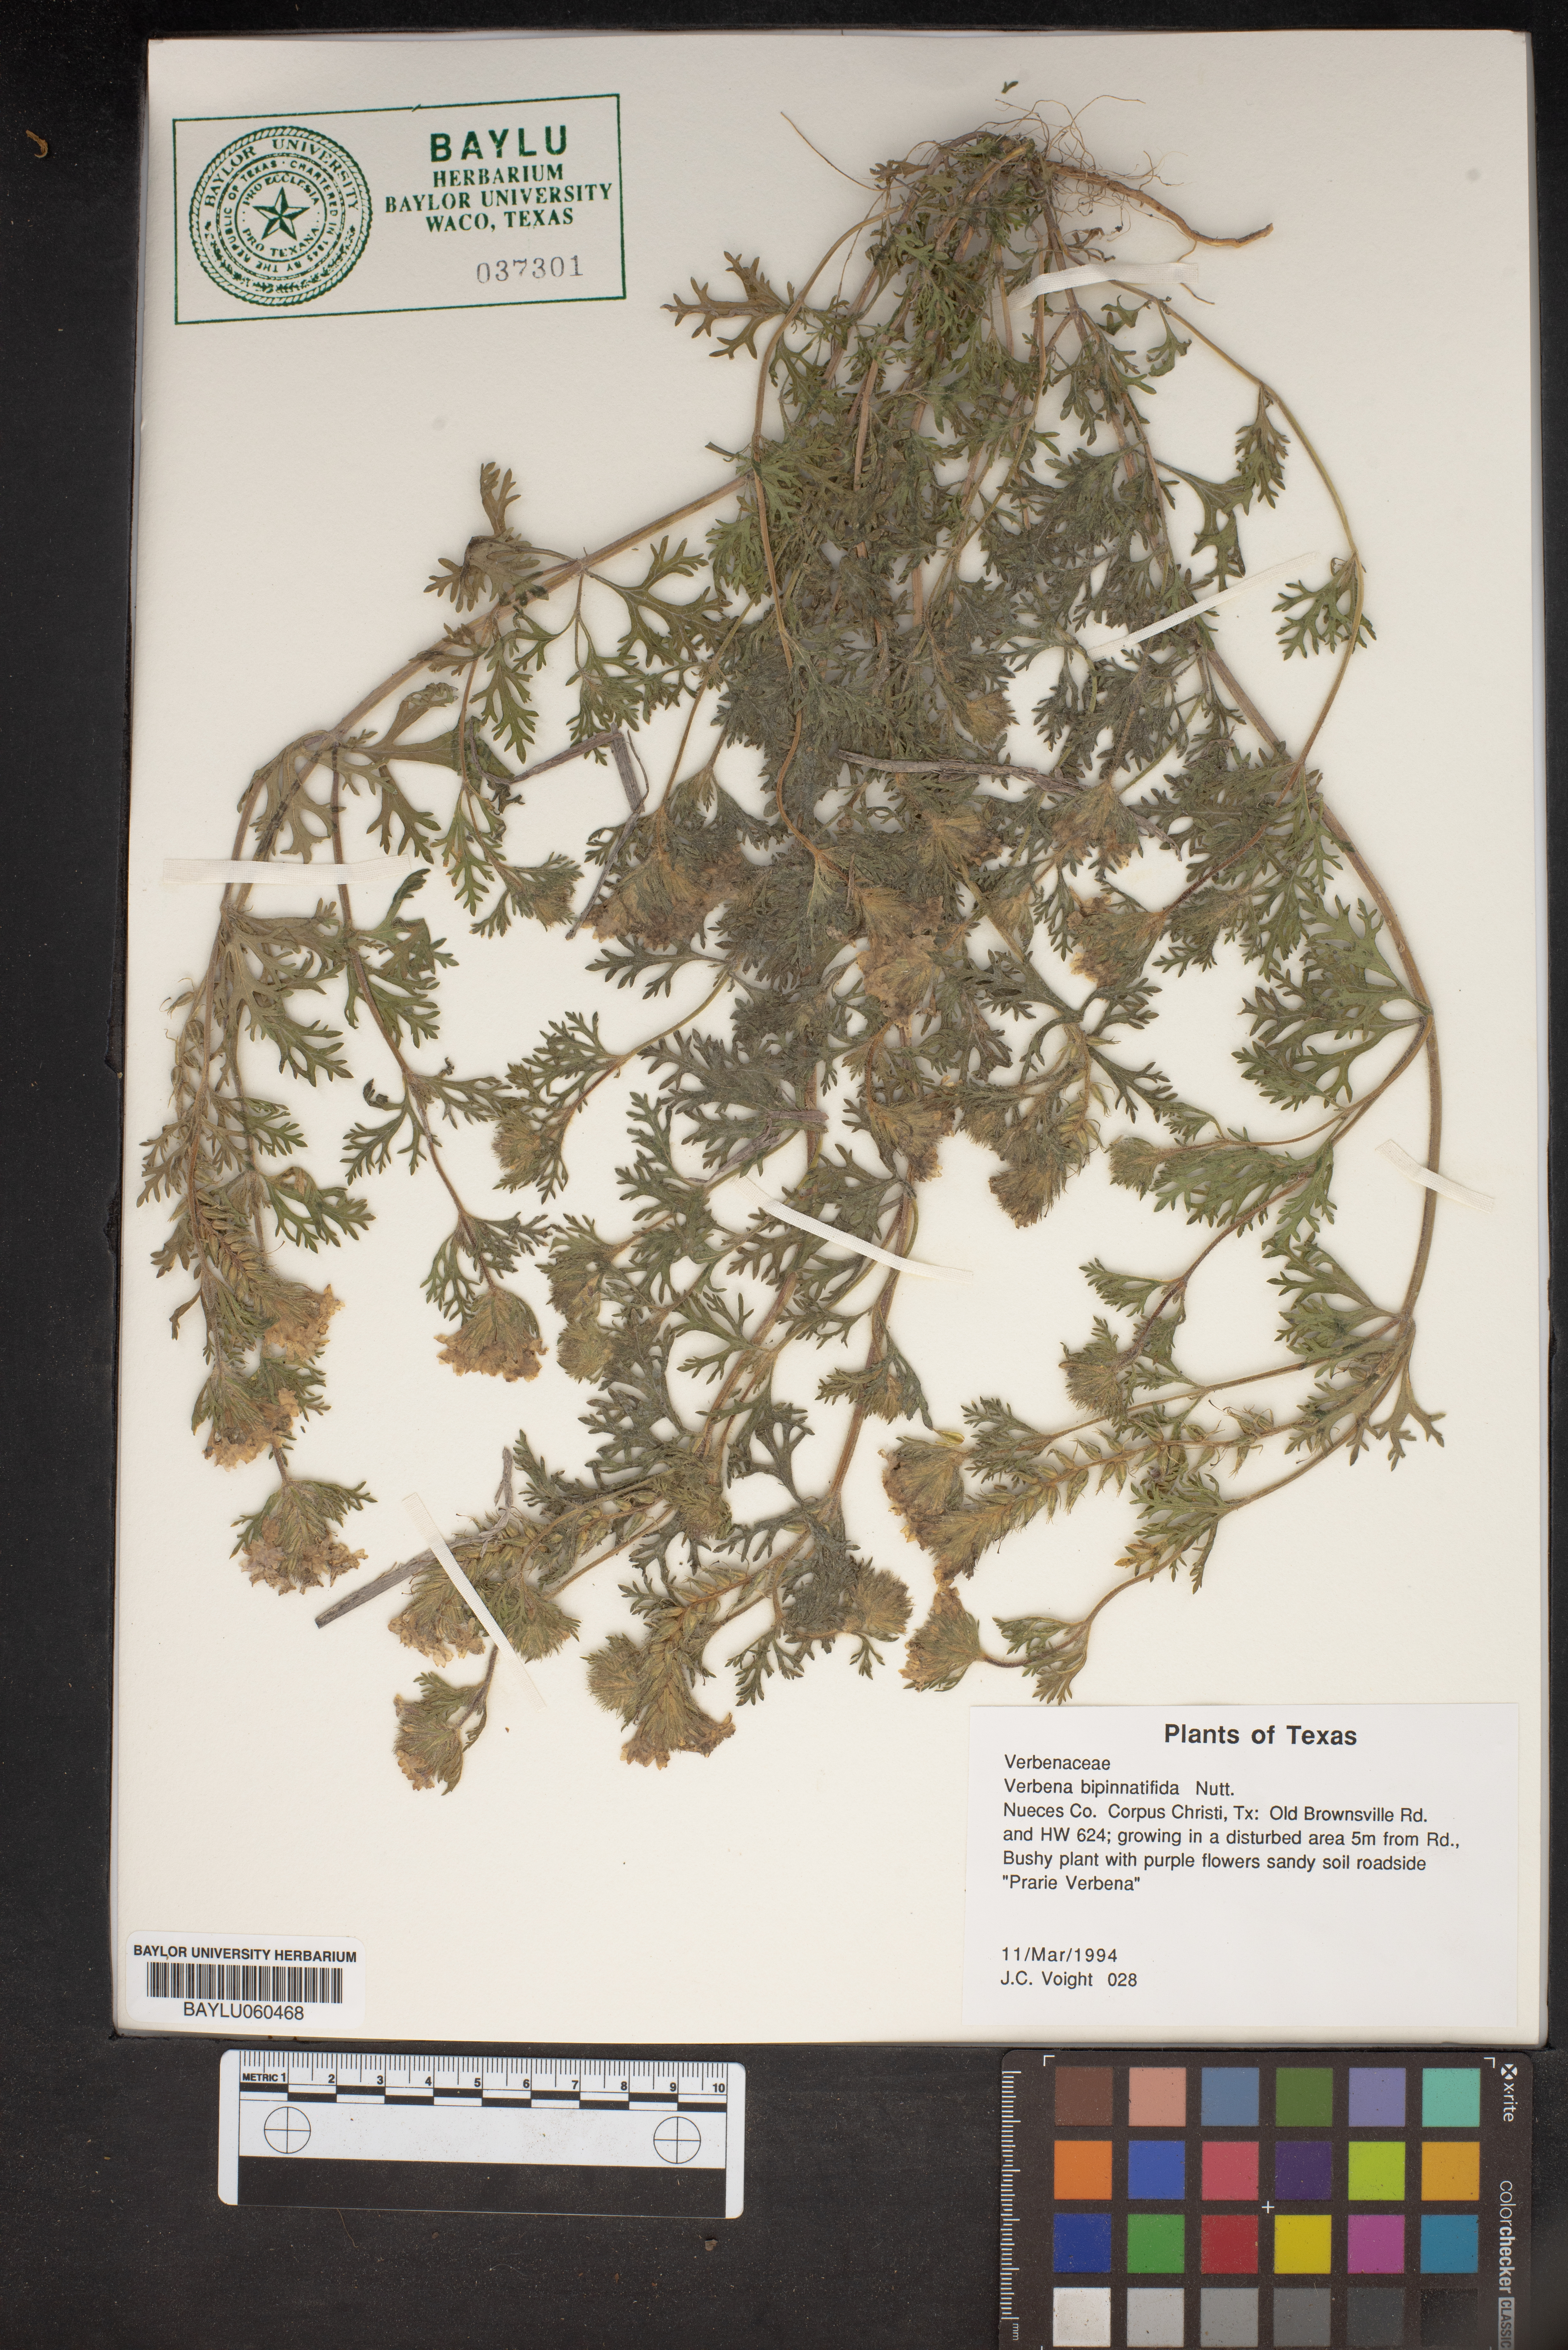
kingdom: Plantae
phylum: Tracheophyta
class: Magnoliopsida
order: Lamiales
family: Verbenaceae
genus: Verbena
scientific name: Verbena bipinnatifida
